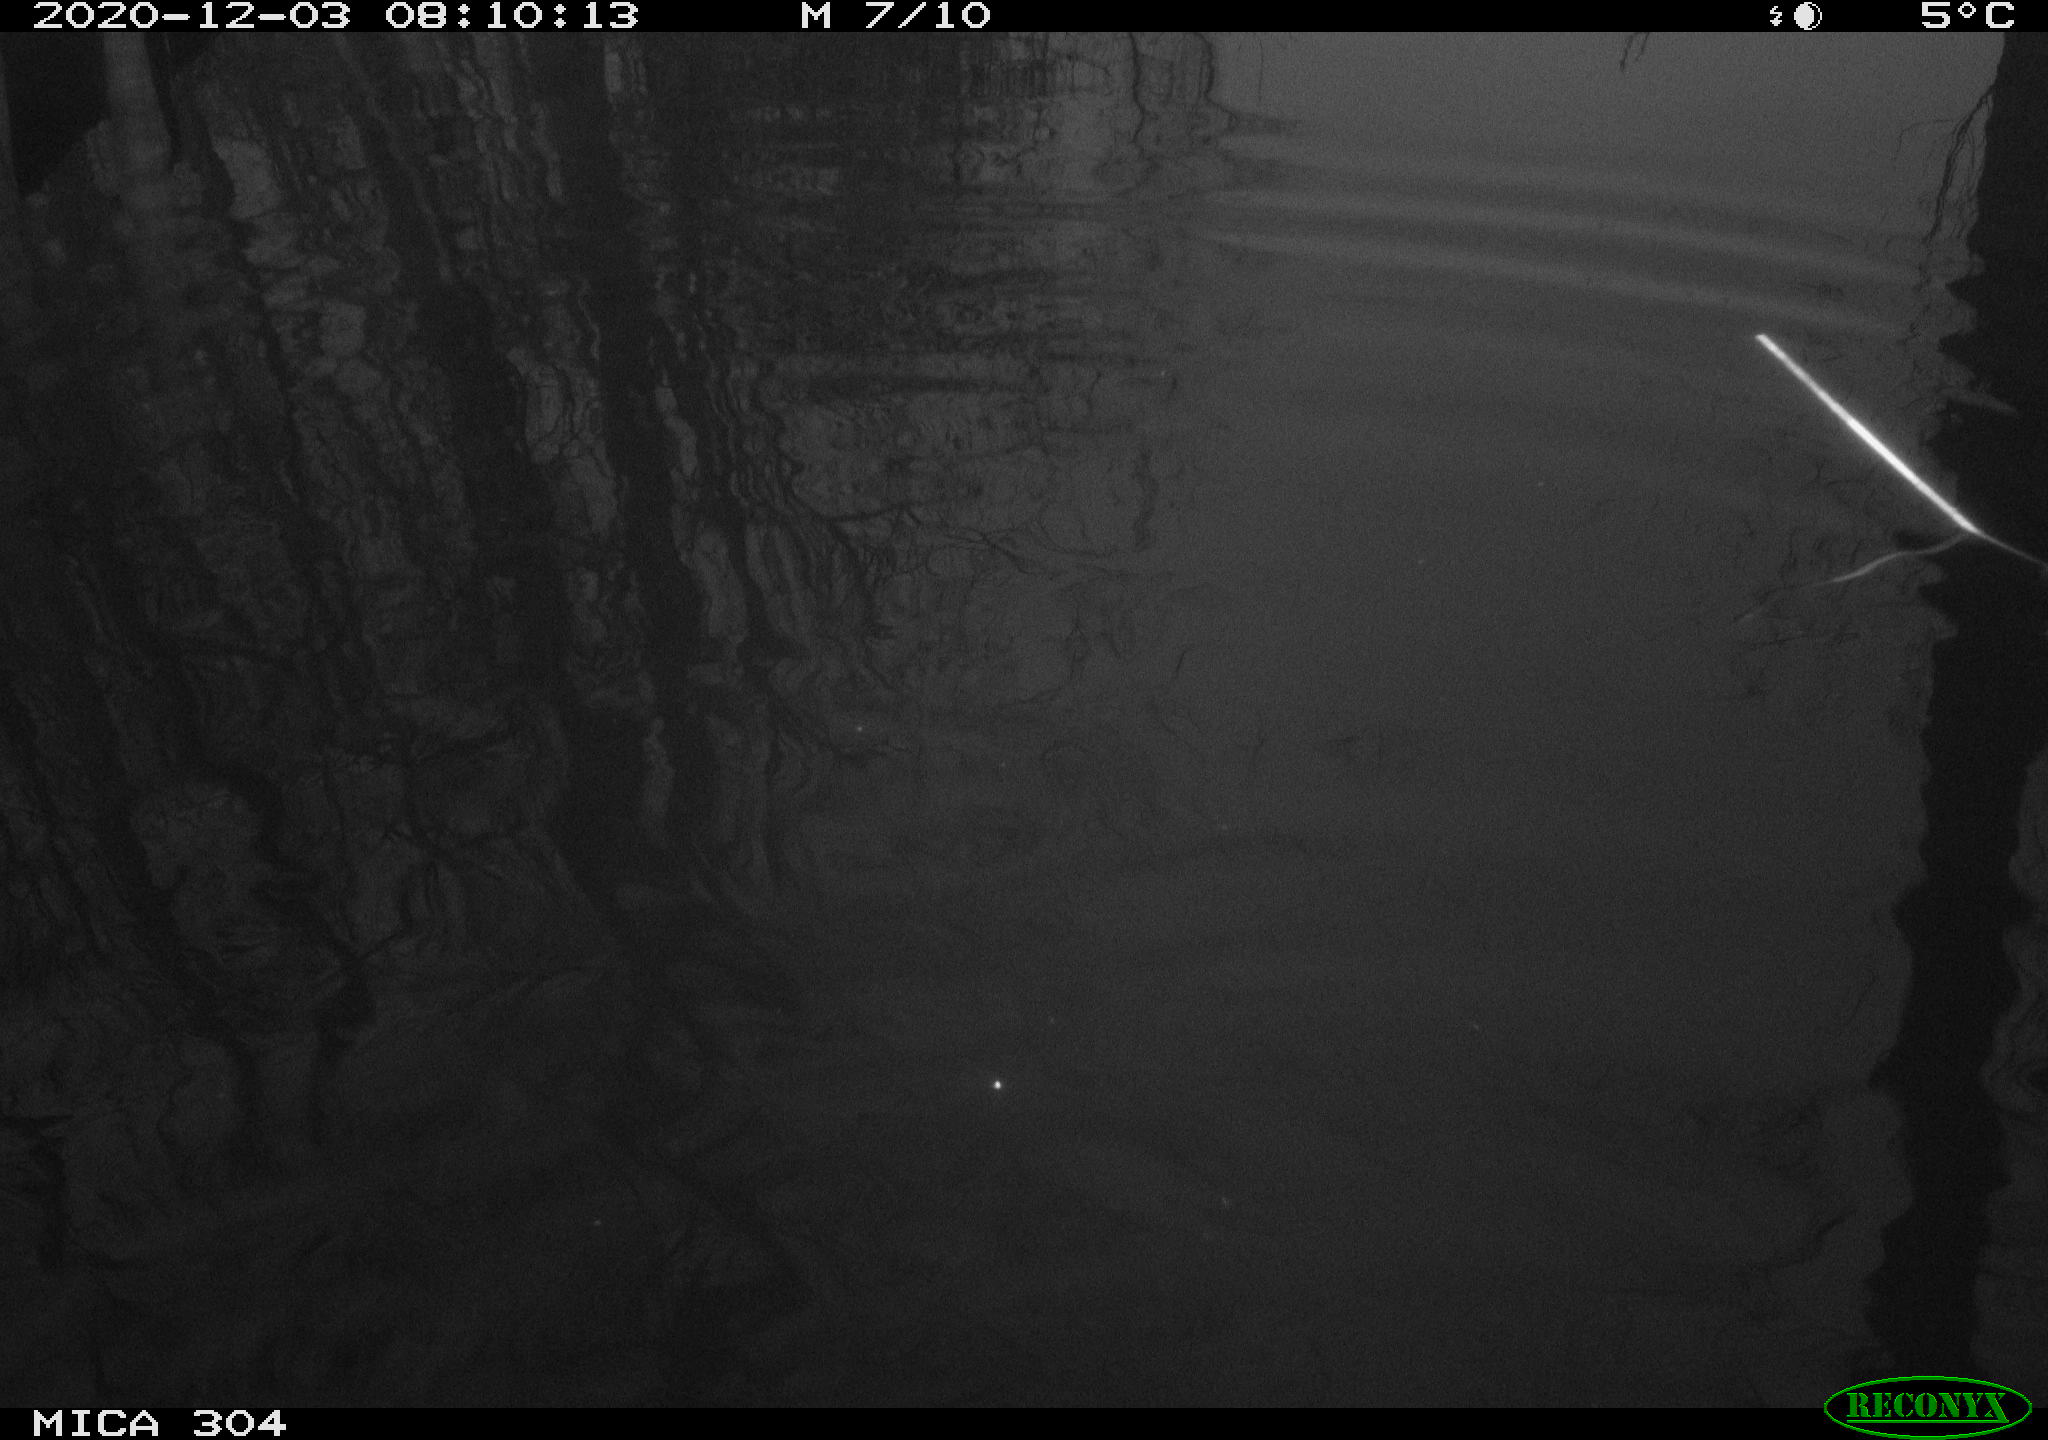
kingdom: Animalia
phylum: Chordata
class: Aves
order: Gruiformes
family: Rallidae
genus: Gallinula
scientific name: Gallinula chloropus
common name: Common moorhen
